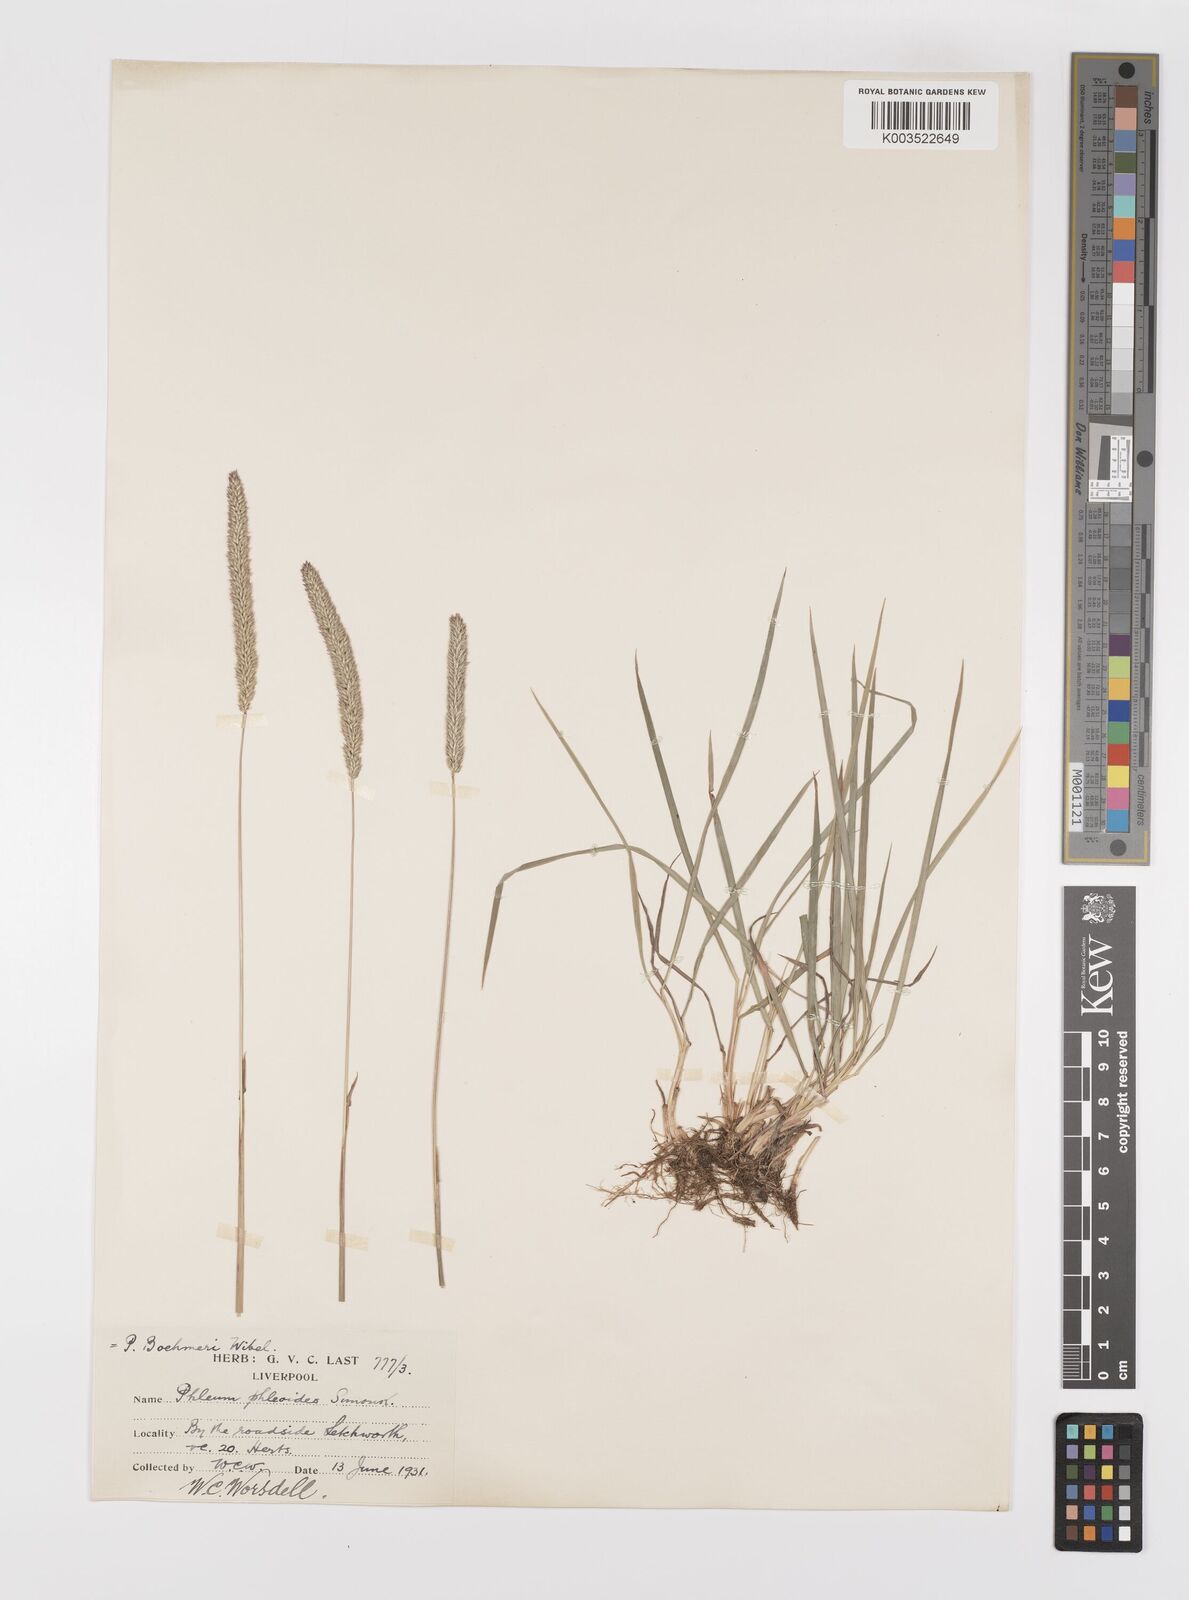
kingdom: Plantae
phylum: Tracheophyta
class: Liliopsida
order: Poales
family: Poaceae
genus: Phleum
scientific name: Phleum phleoides
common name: Purple-stem cat's-tail
